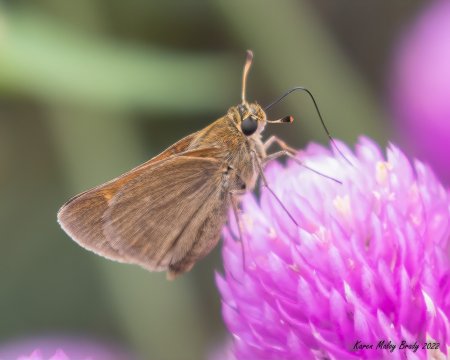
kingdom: Animalia
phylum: Arthropoda
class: Insecta
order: Lepidoptera
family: Hesperiidae
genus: Polites
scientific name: Polites themistocles
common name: Tawny-edged Skipper
